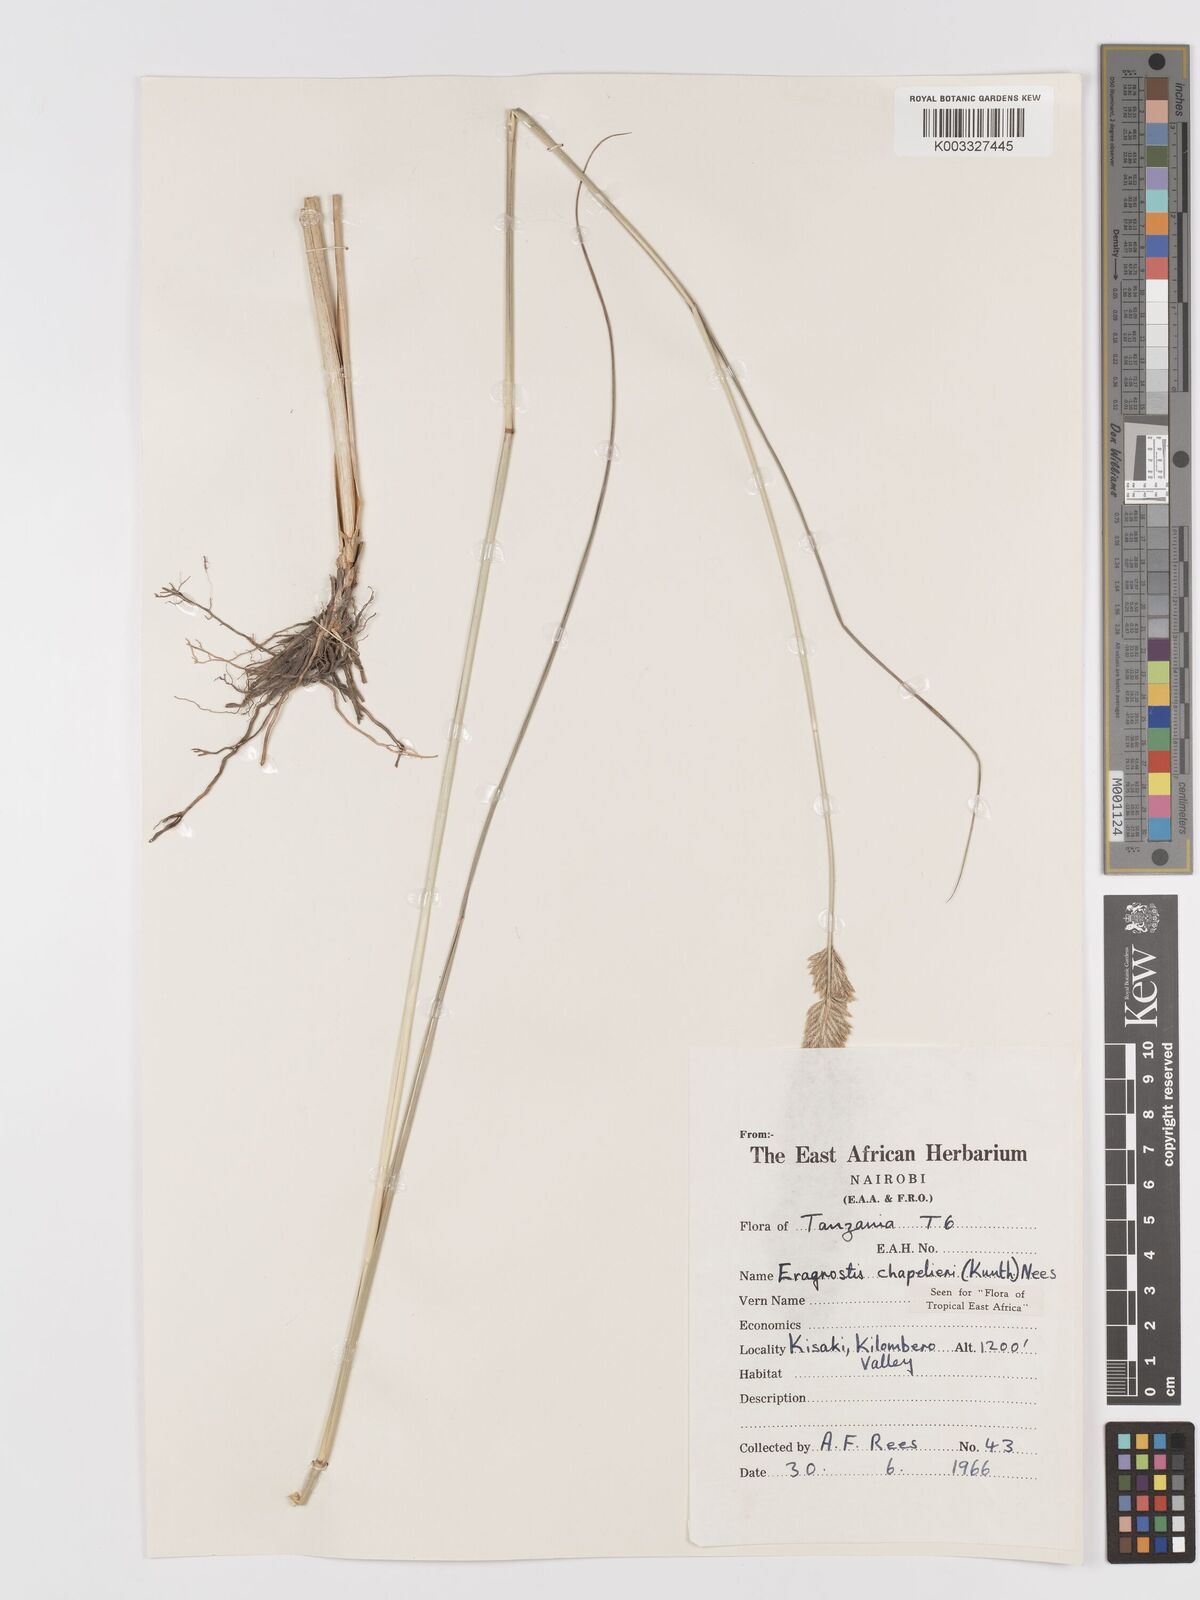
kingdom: Plantae
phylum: Tracheophyta
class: Liliopsida
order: Poales
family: Poaceae
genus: Eragrostis
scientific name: Eragrostis chapelieri
